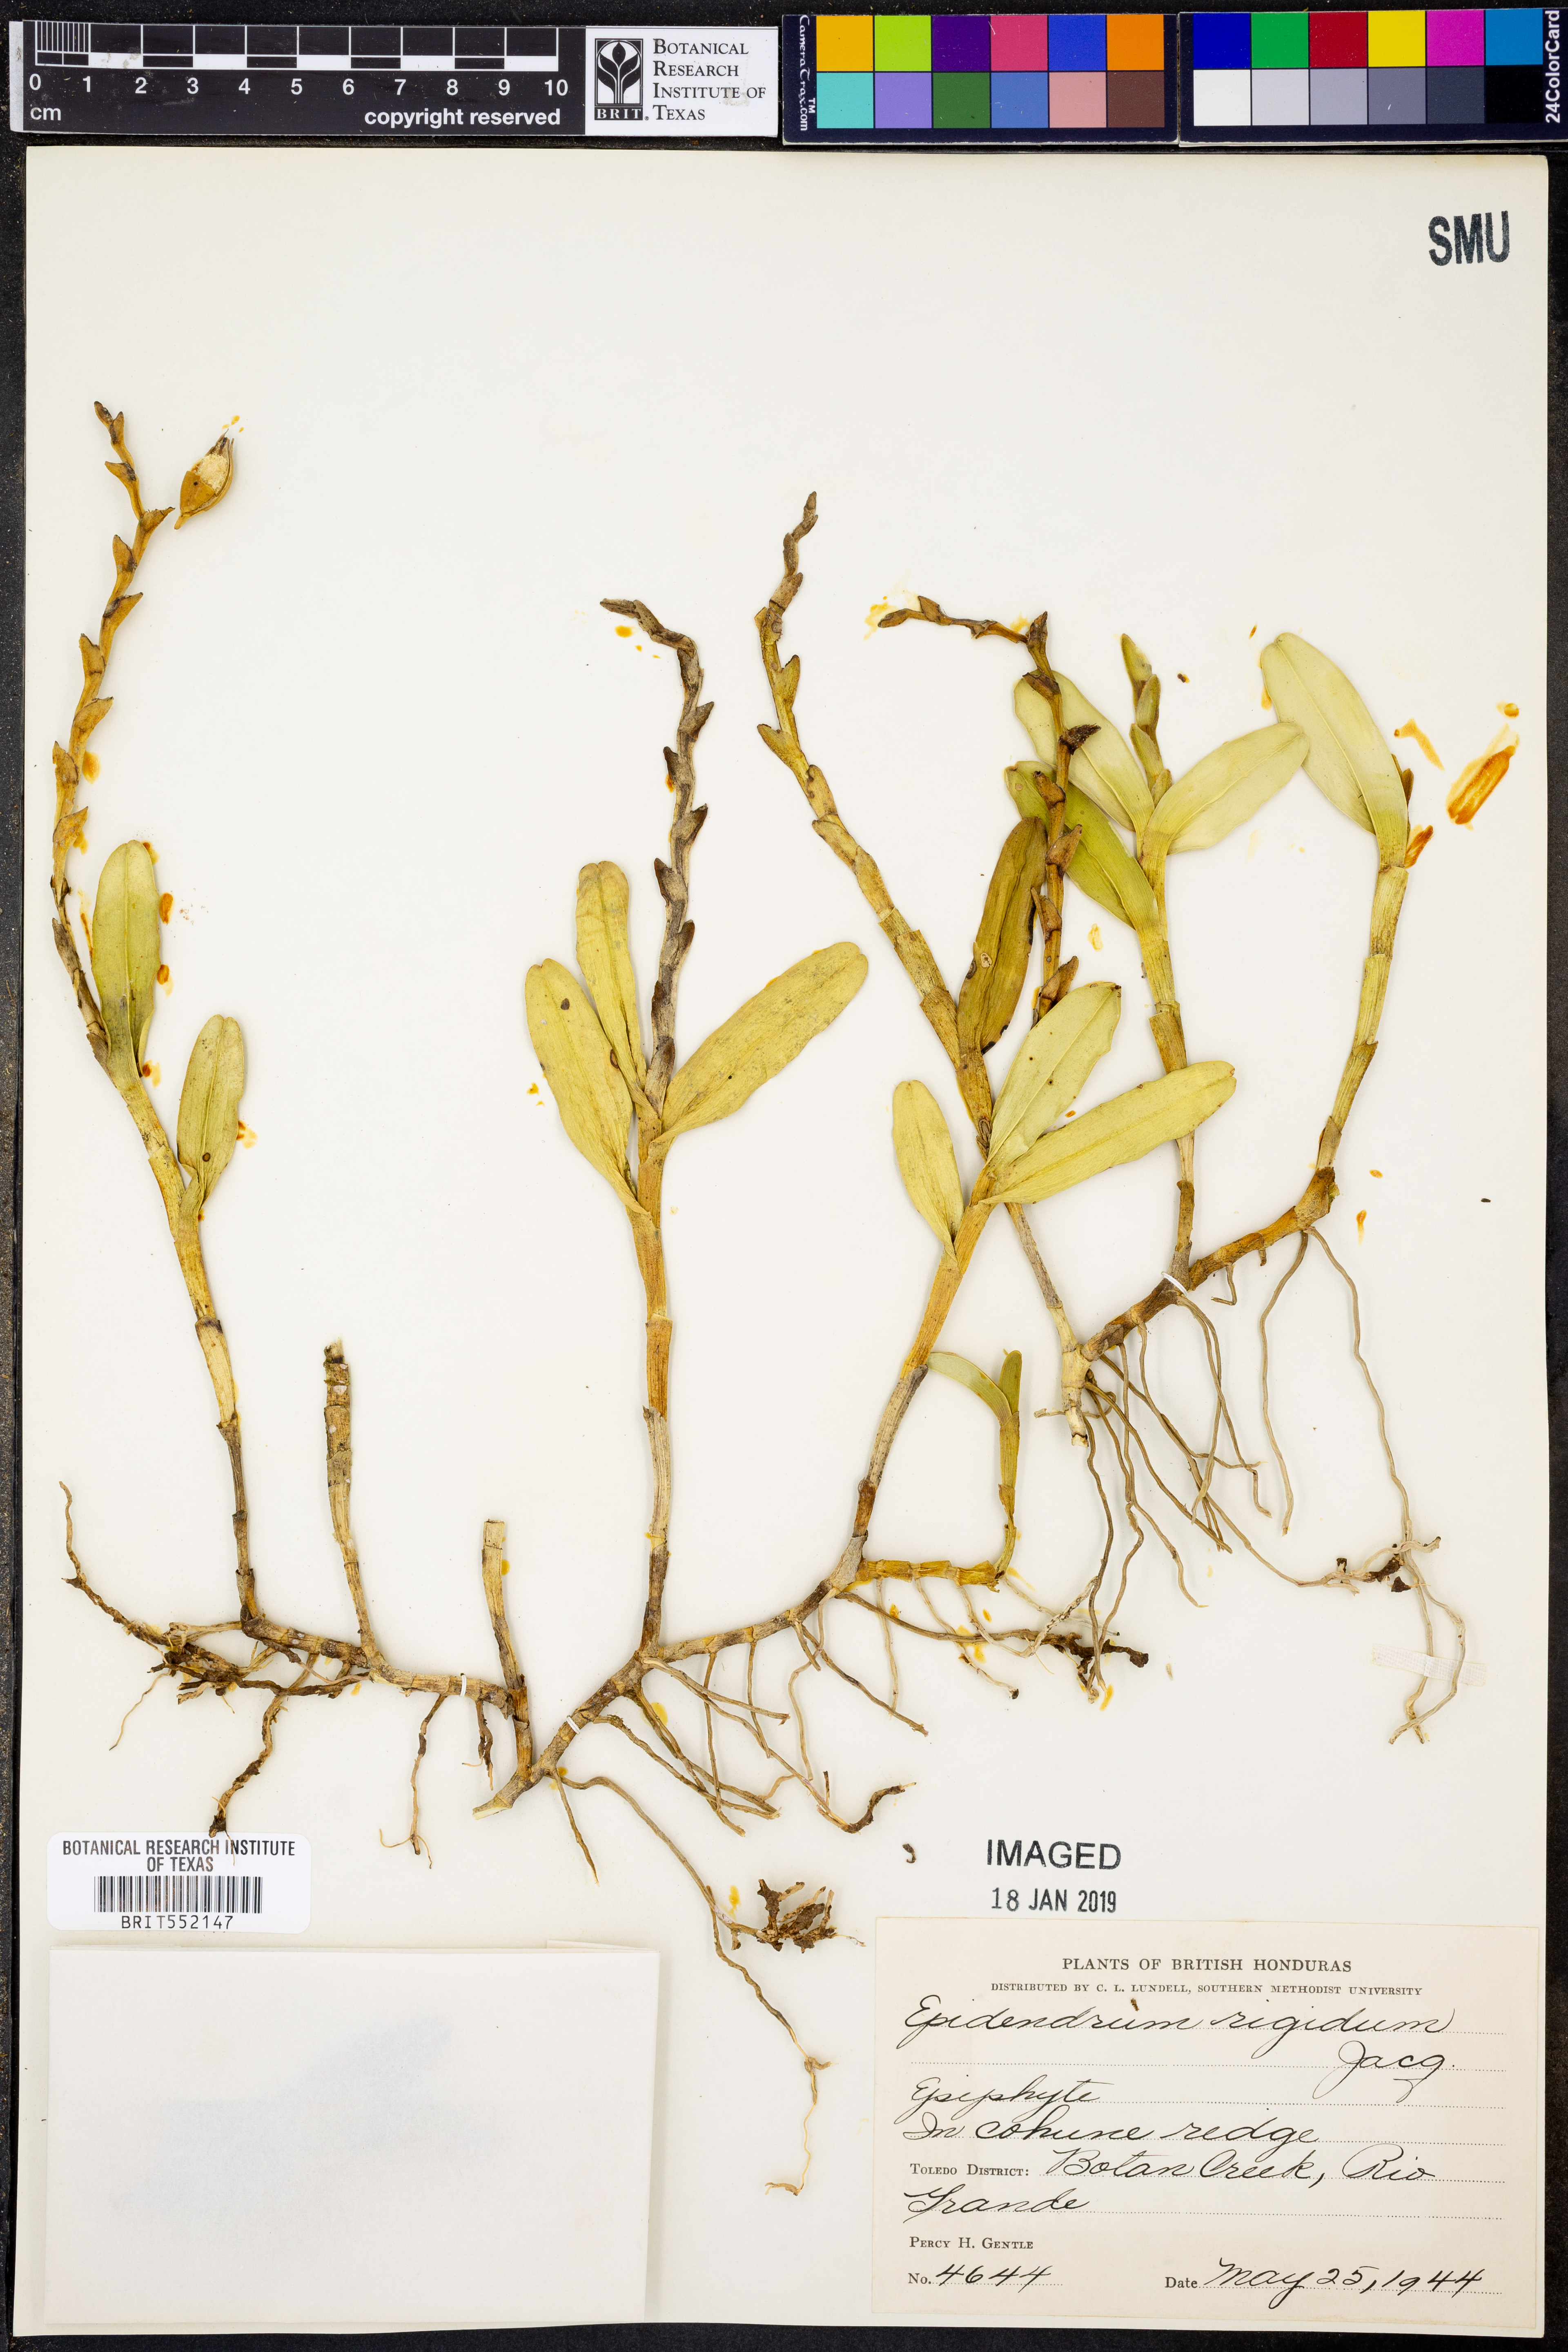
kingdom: Plantae
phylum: Tracheophyta
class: Liliopsida
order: Asparagales
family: Orchidaceae
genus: Epidendrum
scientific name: Epidendrum rigidum
